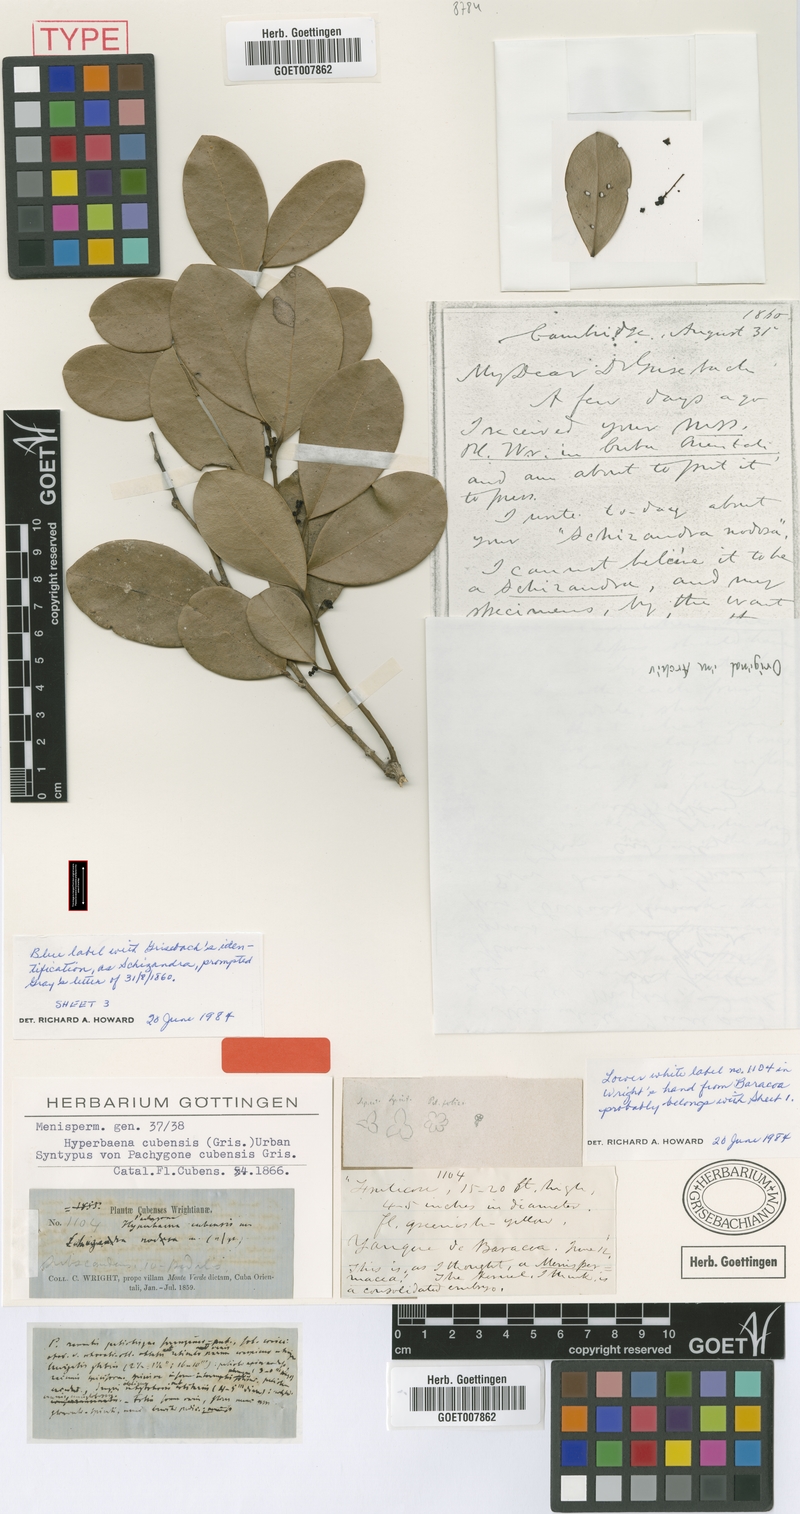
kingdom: Plantae
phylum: Tracheophyta
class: Magnoliopsida
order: Ranunculales
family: Menispermaceae
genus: Hyperbaena
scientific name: Hyperbaena cubensis
